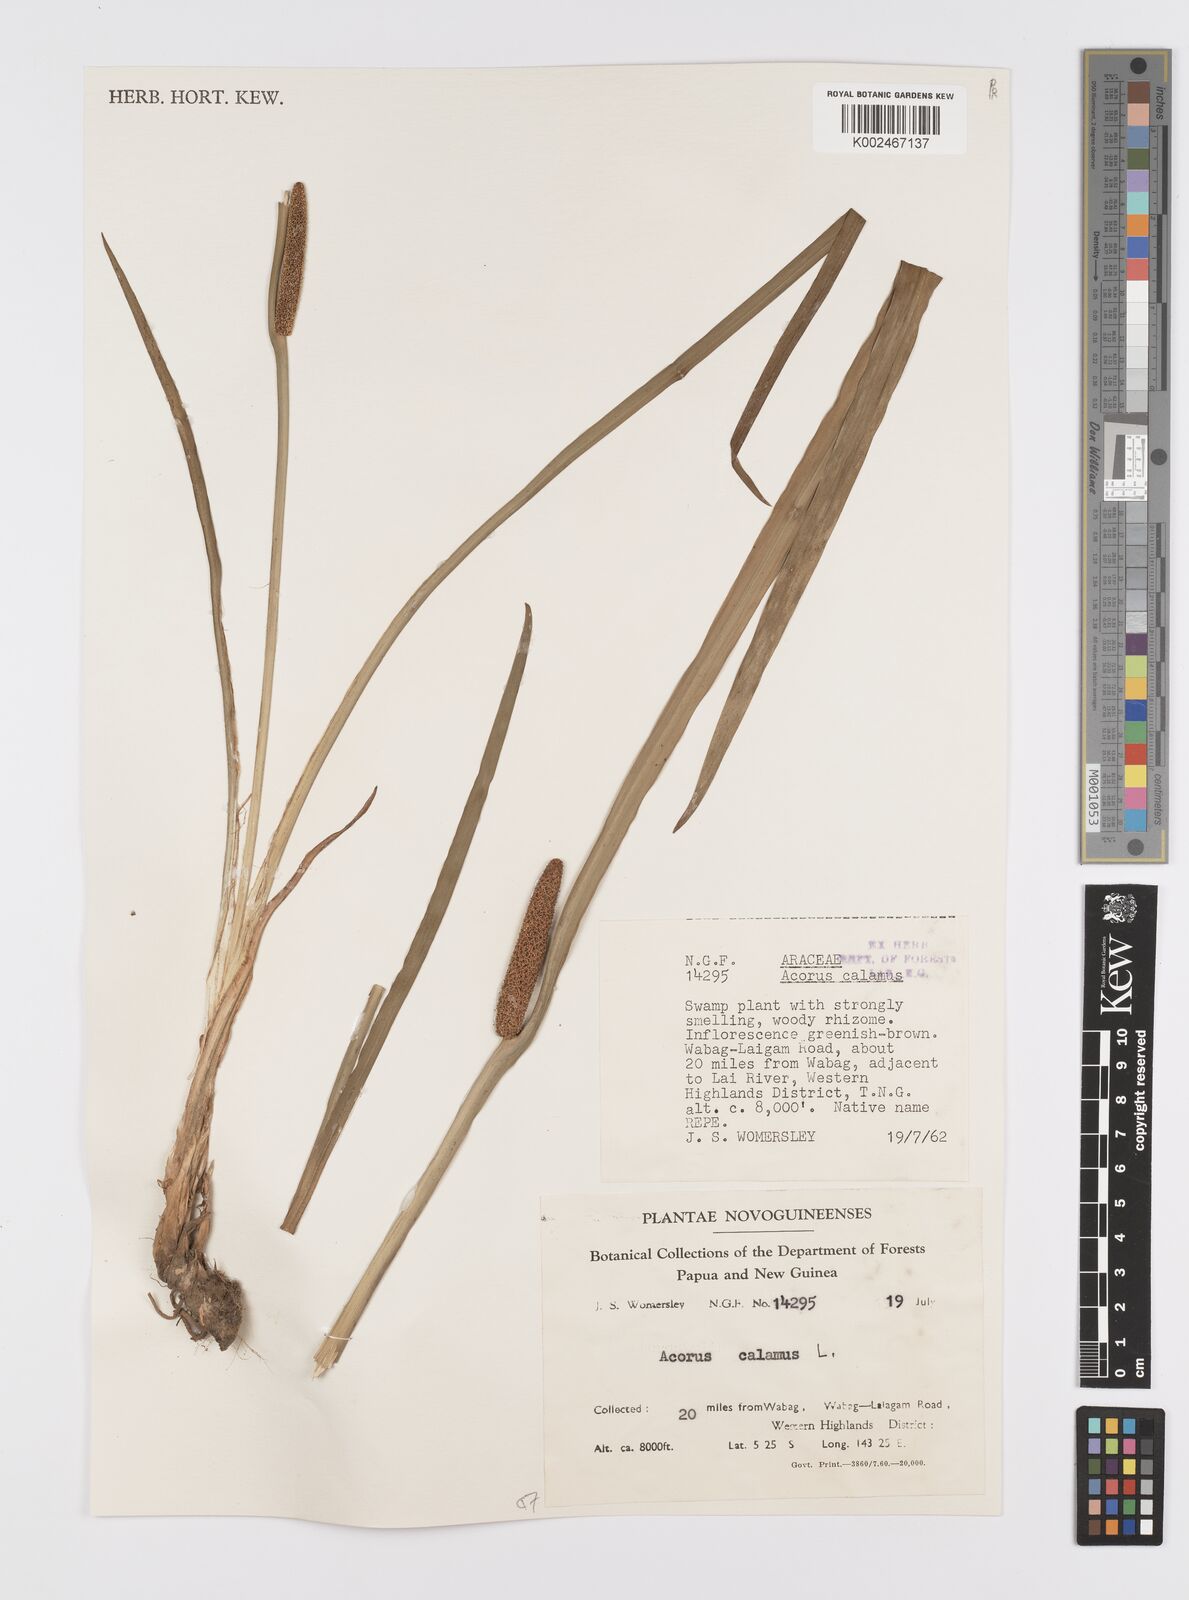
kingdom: Plantae
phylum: Tracheophyta
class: Liliopsida
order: Acorales
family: Acoraceae
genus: Acorus
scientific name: Acorus calamus
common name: Sweet-flag
